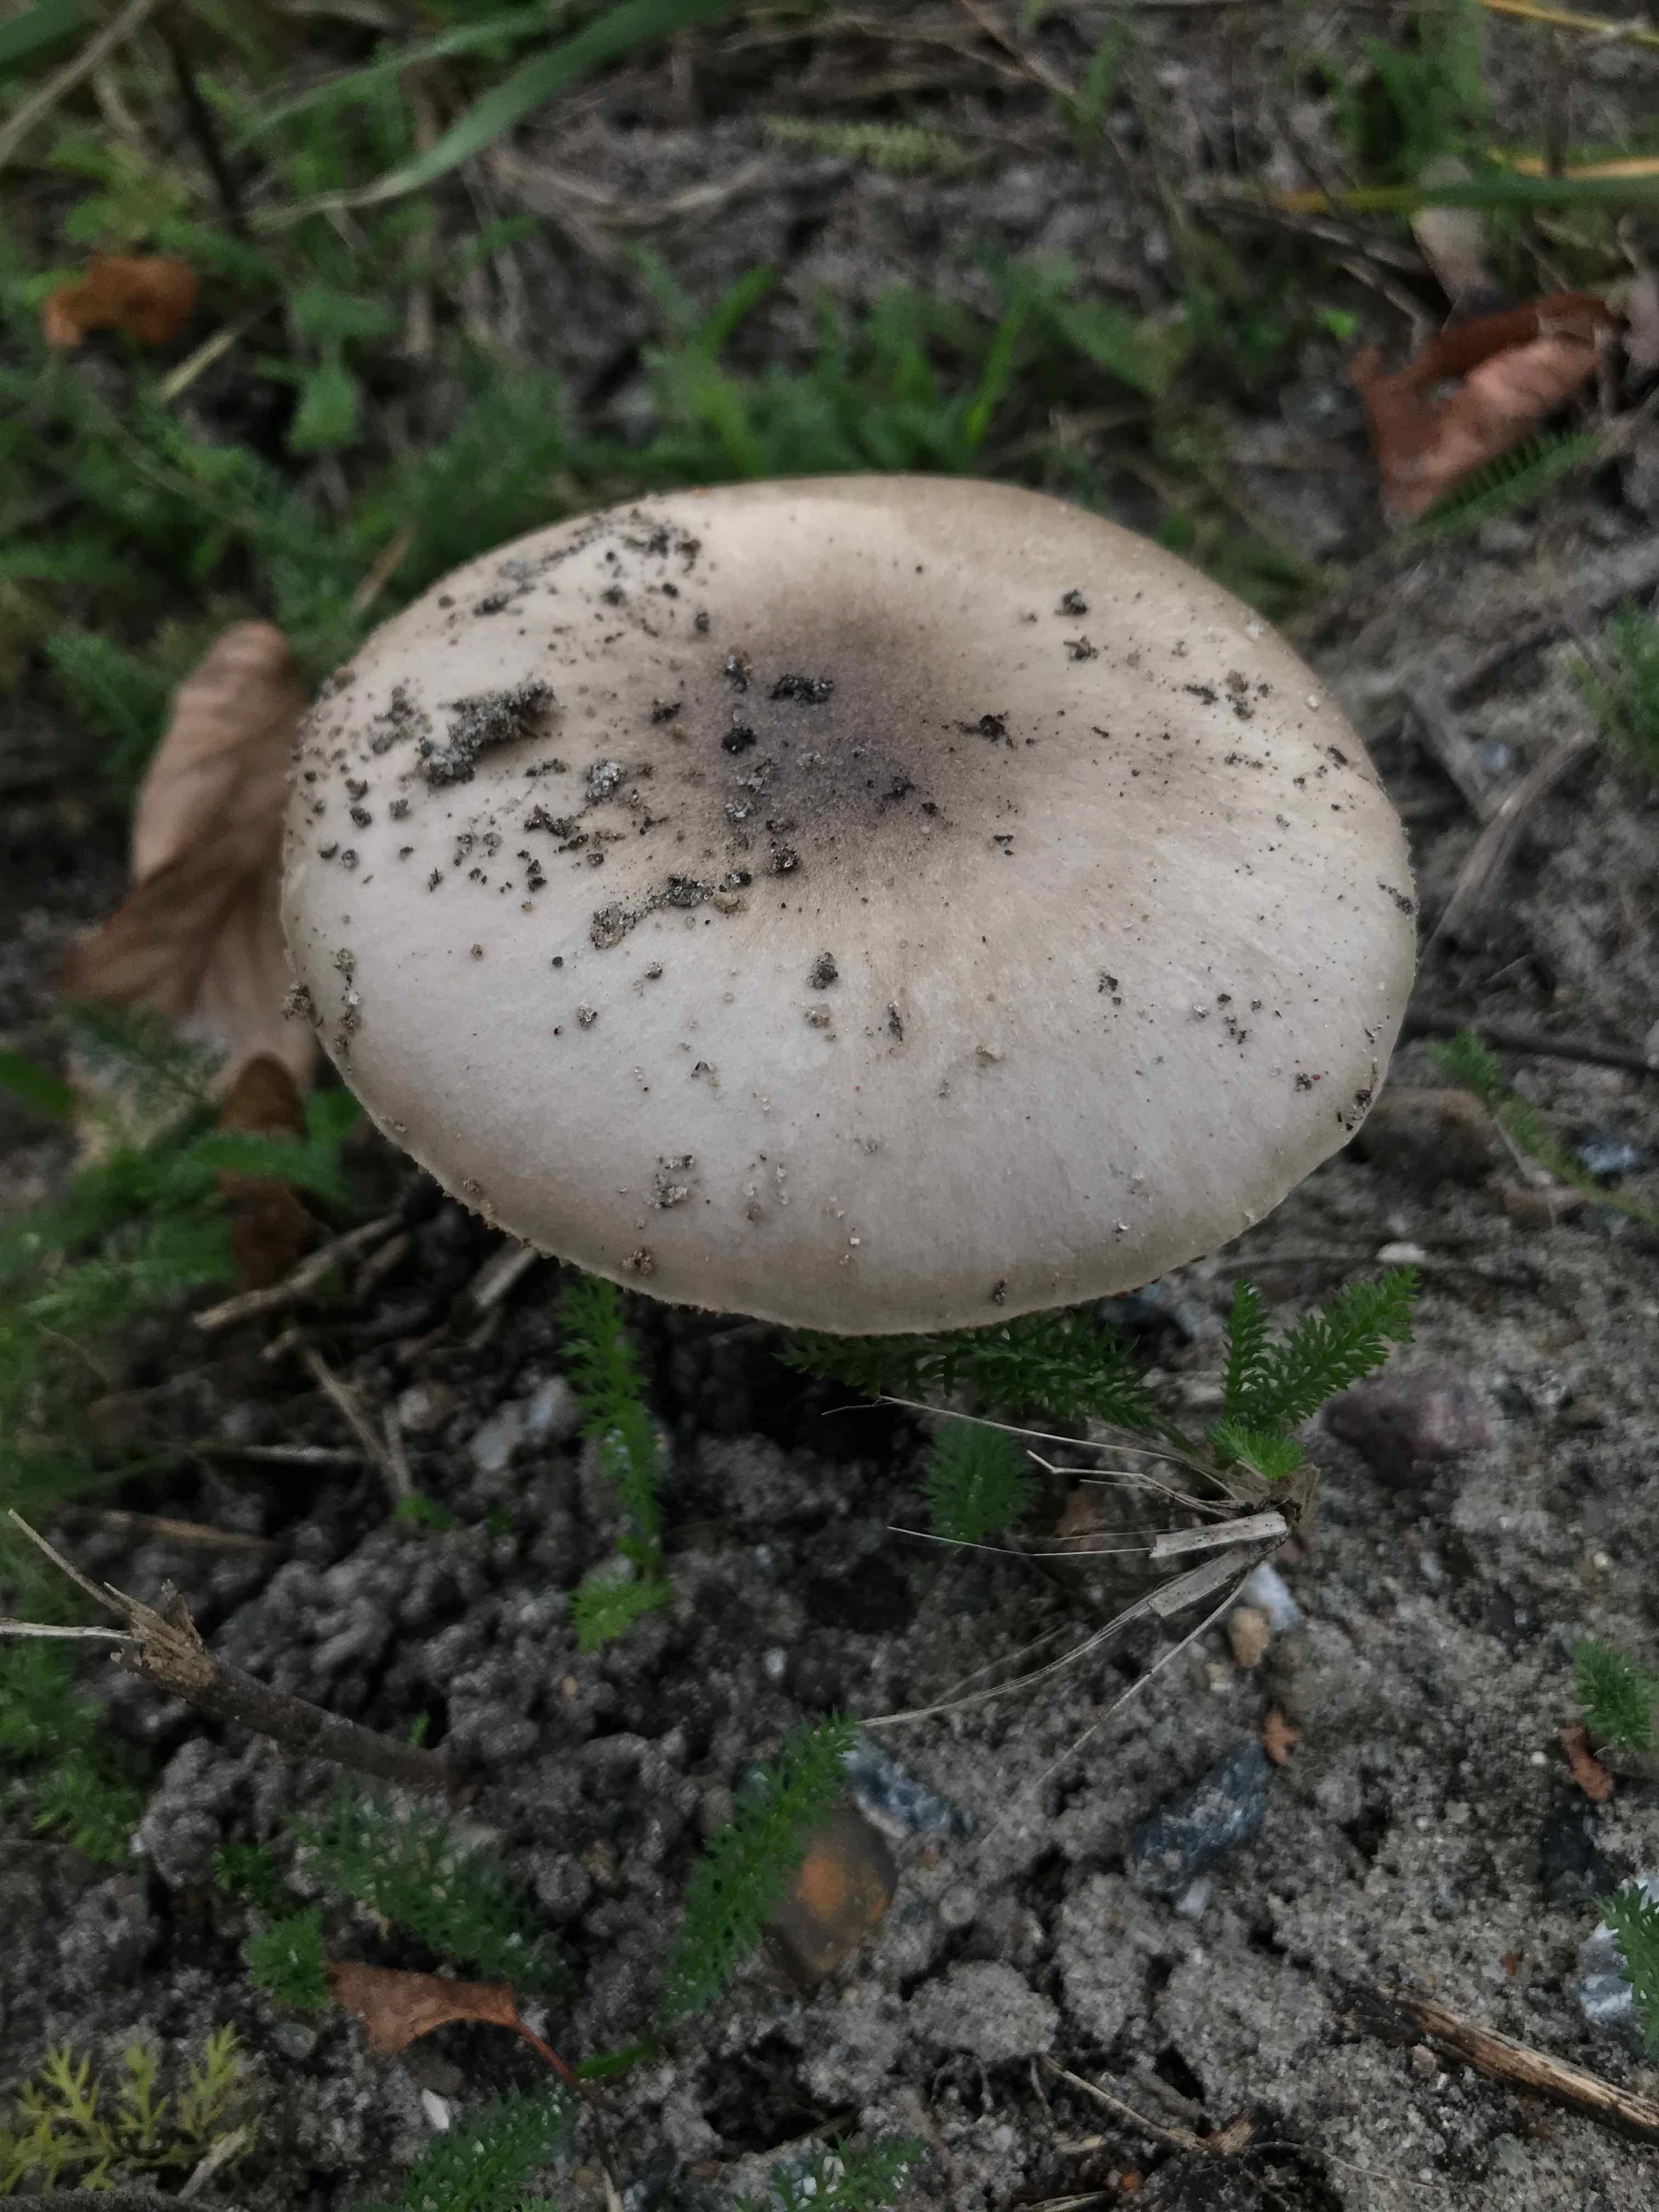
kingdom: Fungi
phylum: Basidiomycota
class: Agaricomycetes
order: Agaricales
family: Pluteaceae
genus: Volvopluteus
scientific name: Volvopluteus gloiocephalus
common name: høj posesvamp
